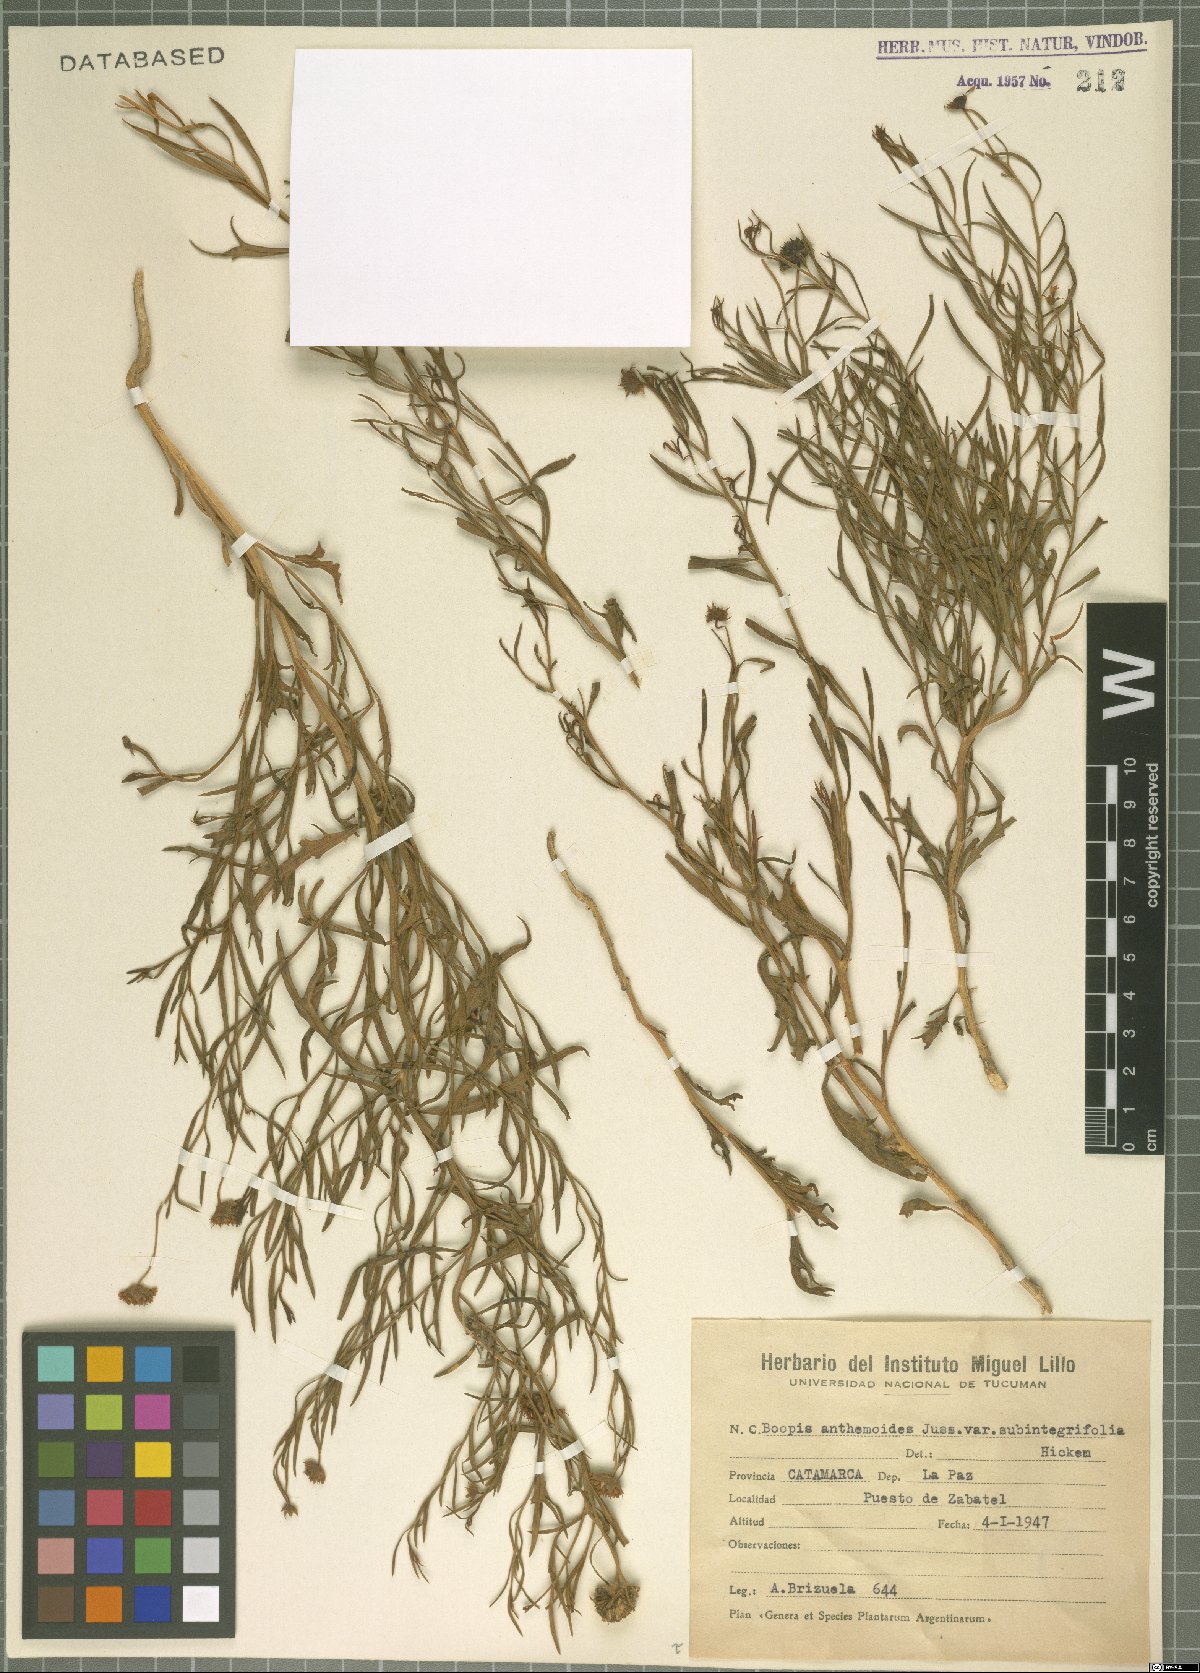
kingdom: Plantae
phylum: Tracheophyta
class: Magnoliopsida
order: Asterales
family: Calyceraceae
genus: Boopis
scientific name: Boopis anthemoides
